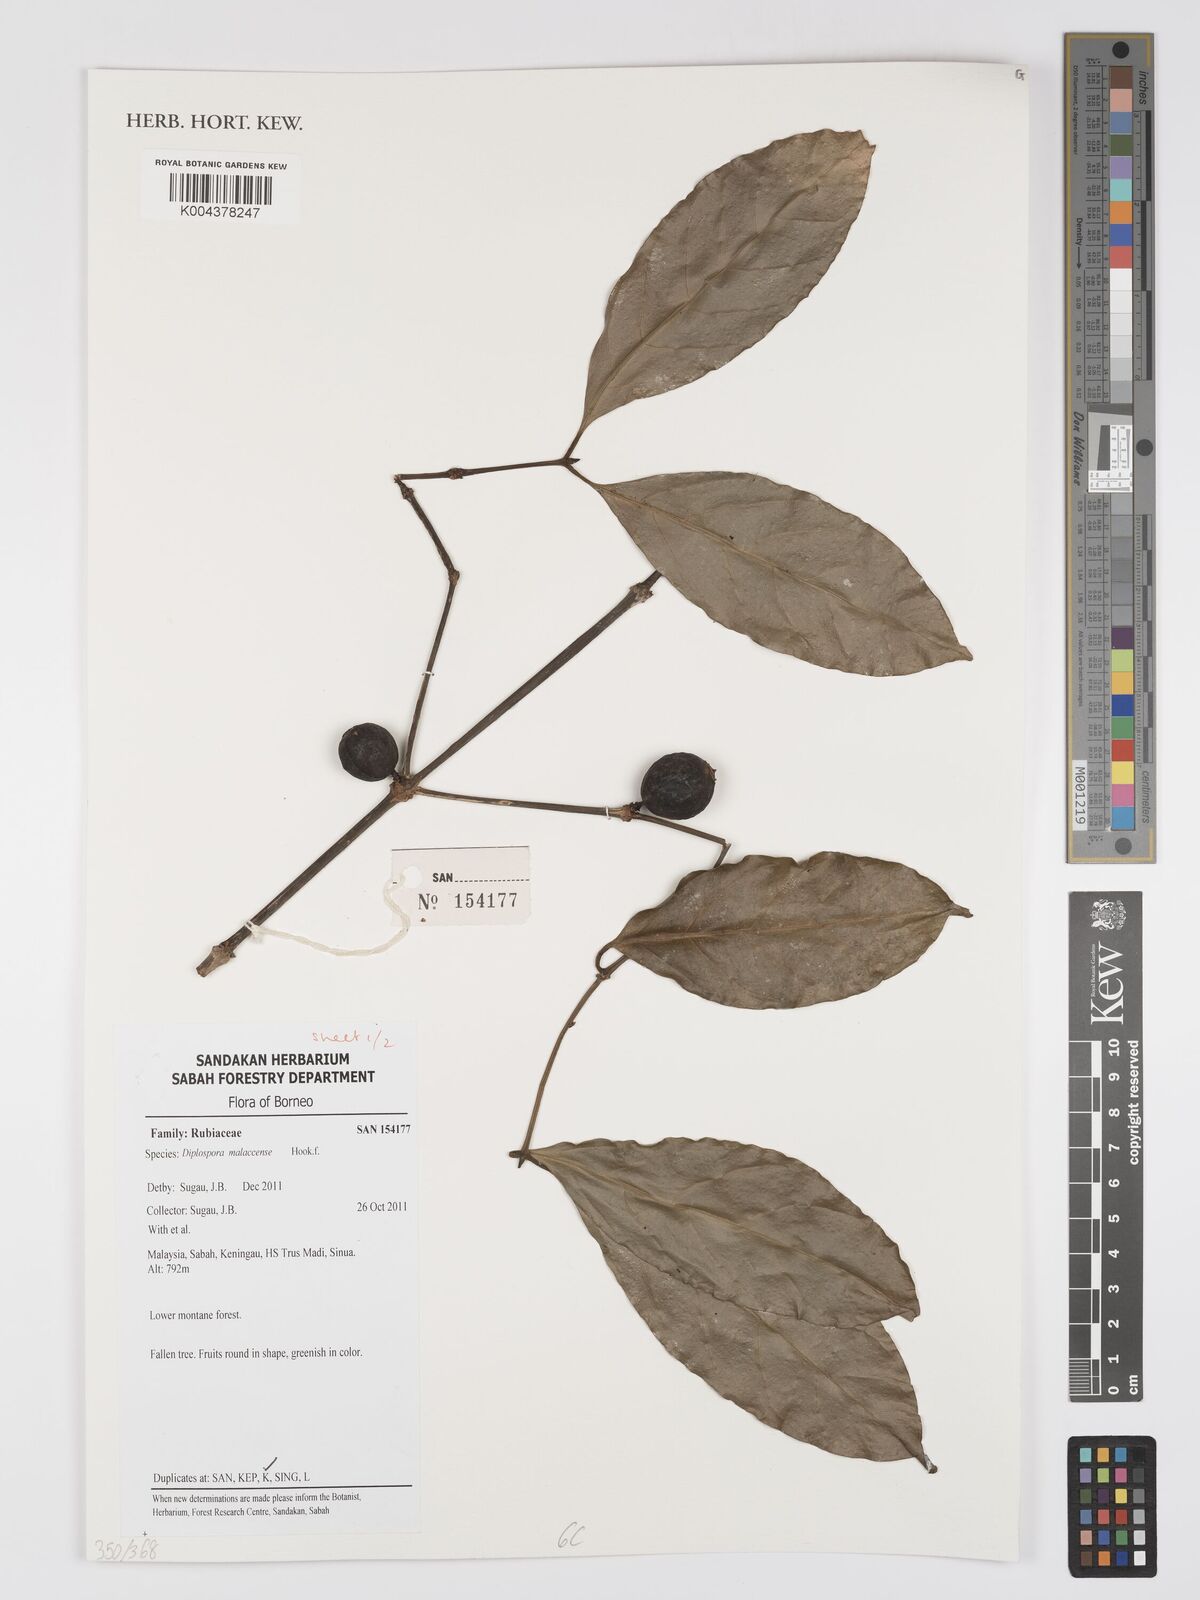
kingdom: Plantae
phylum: Tracheophyta
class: Magnoliopsida
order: Gentianales
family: Rubiaceae
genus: Discospermum
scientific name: Discospermum malaccense
